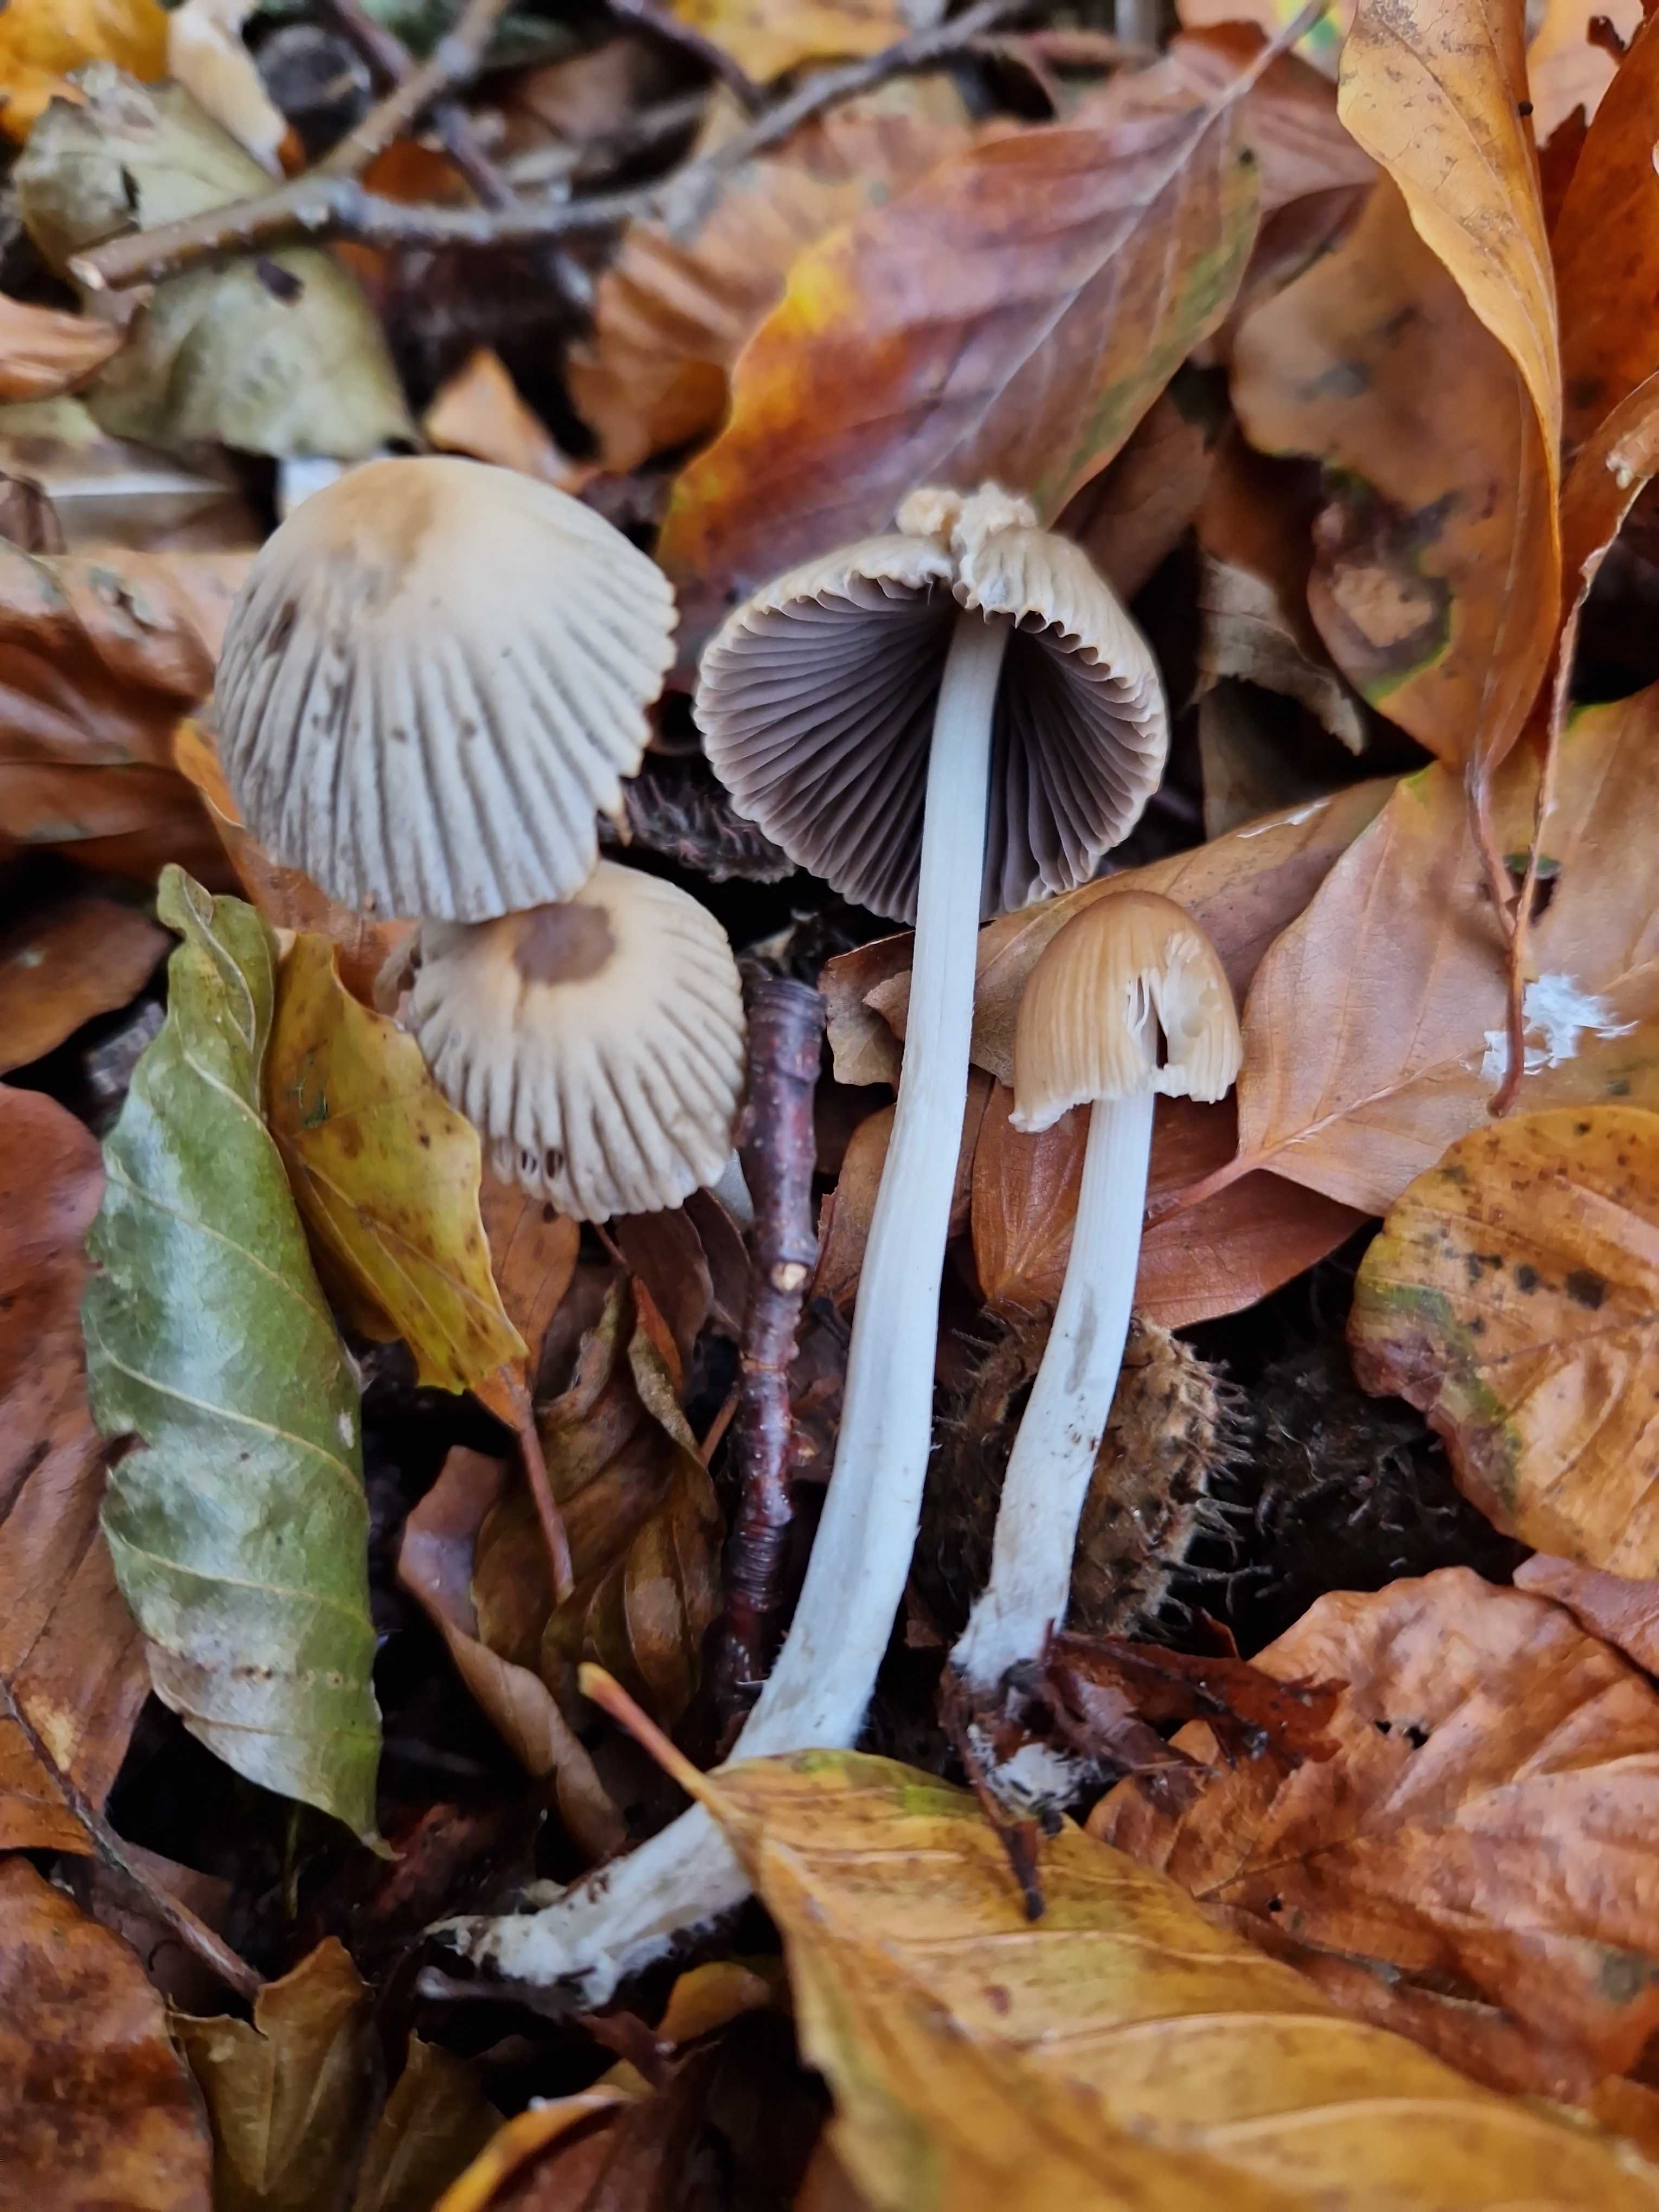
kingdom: Fungi
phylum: Basidiomycota
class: Agaricomycetes
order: Agaricales
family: Psathyrellaceae
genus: Tulosesus
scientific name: Tulosesus impatiens
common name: furet blækhat
